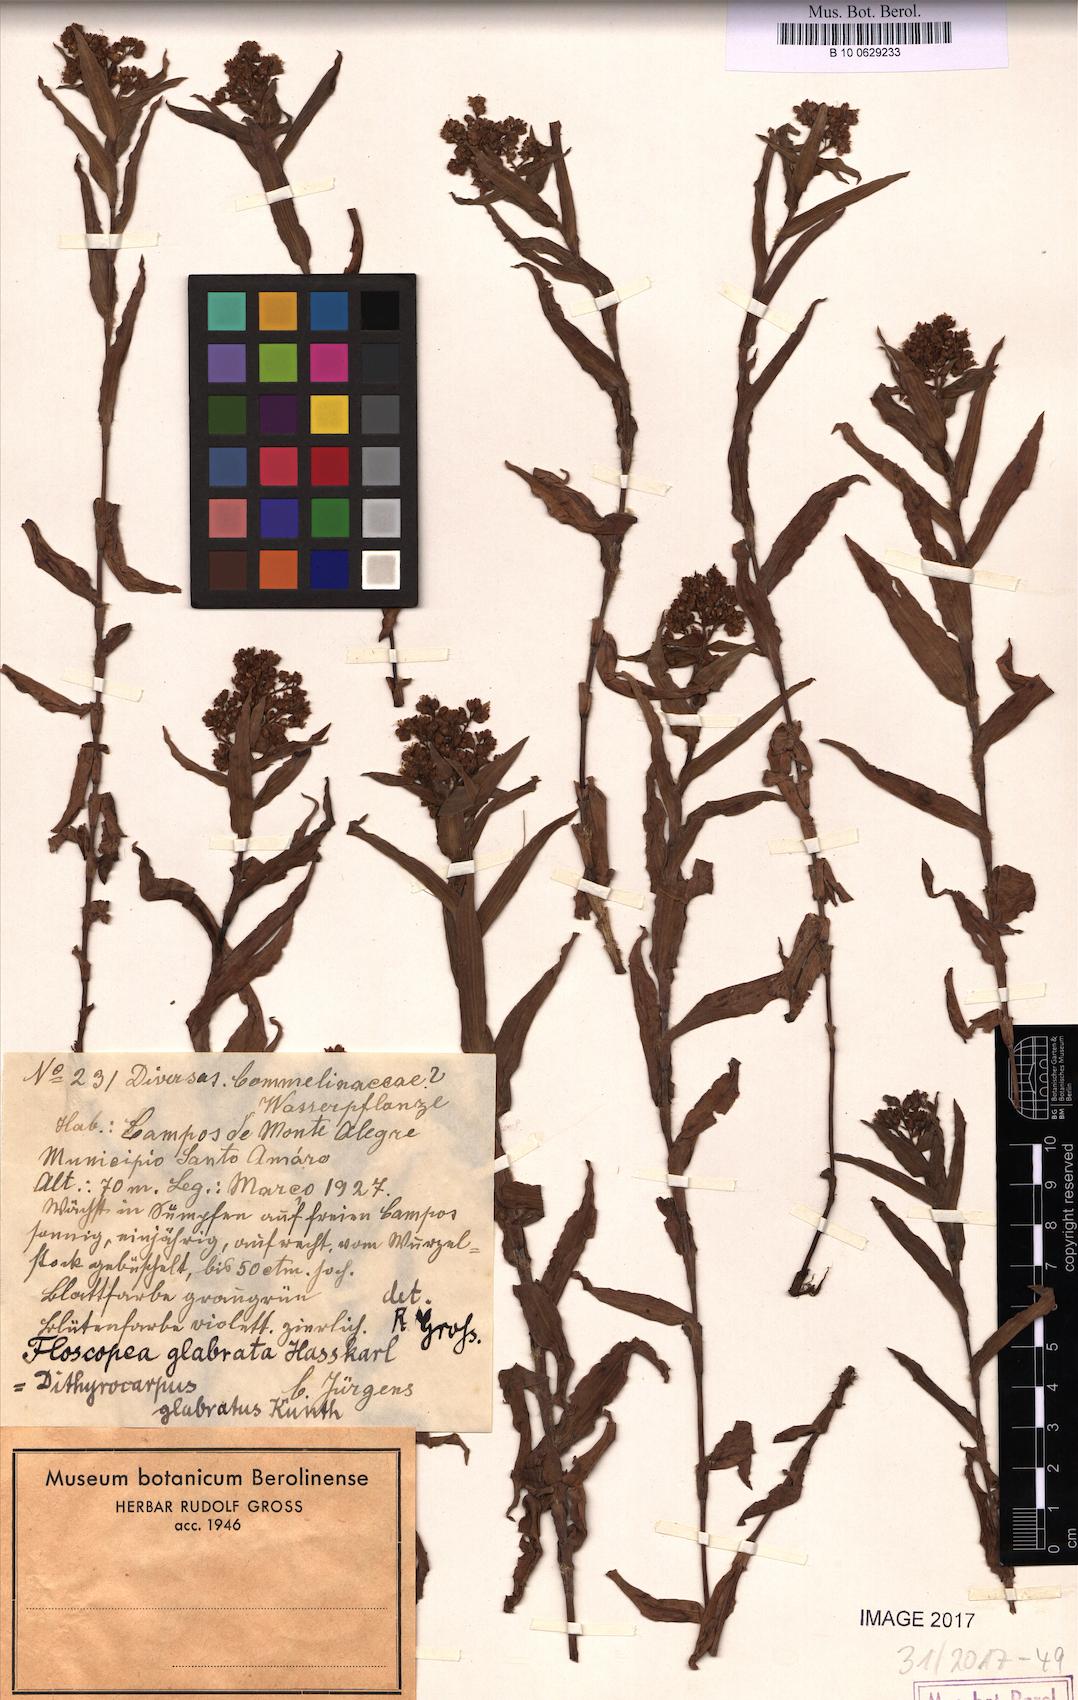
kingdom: Plantae
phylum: Tracheophyta
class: Liliopsida
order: Commelinales
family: Commelinaceae
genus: Floscopa
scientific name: Floscopa glabrata
